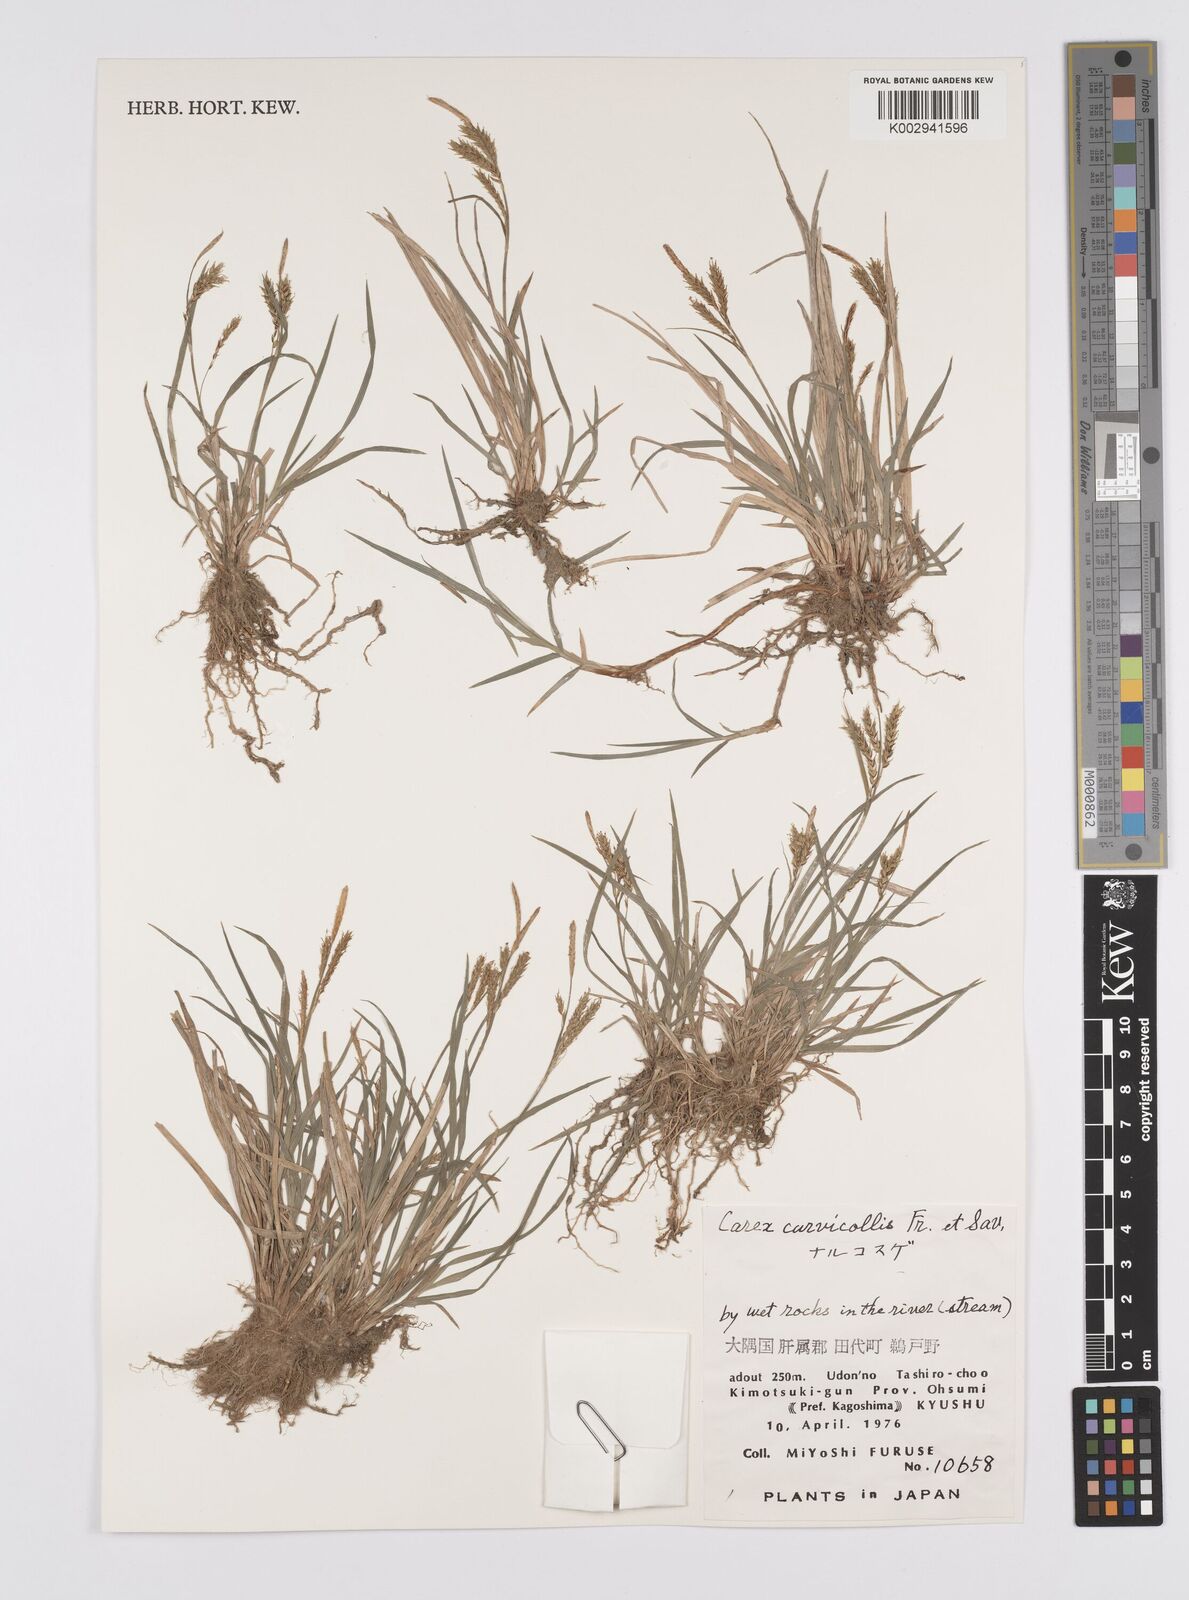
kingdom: Plantae
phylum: Tracheophyta
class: Liliopsida
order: Poales
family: Cyperaceae
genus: Carex
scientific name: Carex curvicollis
